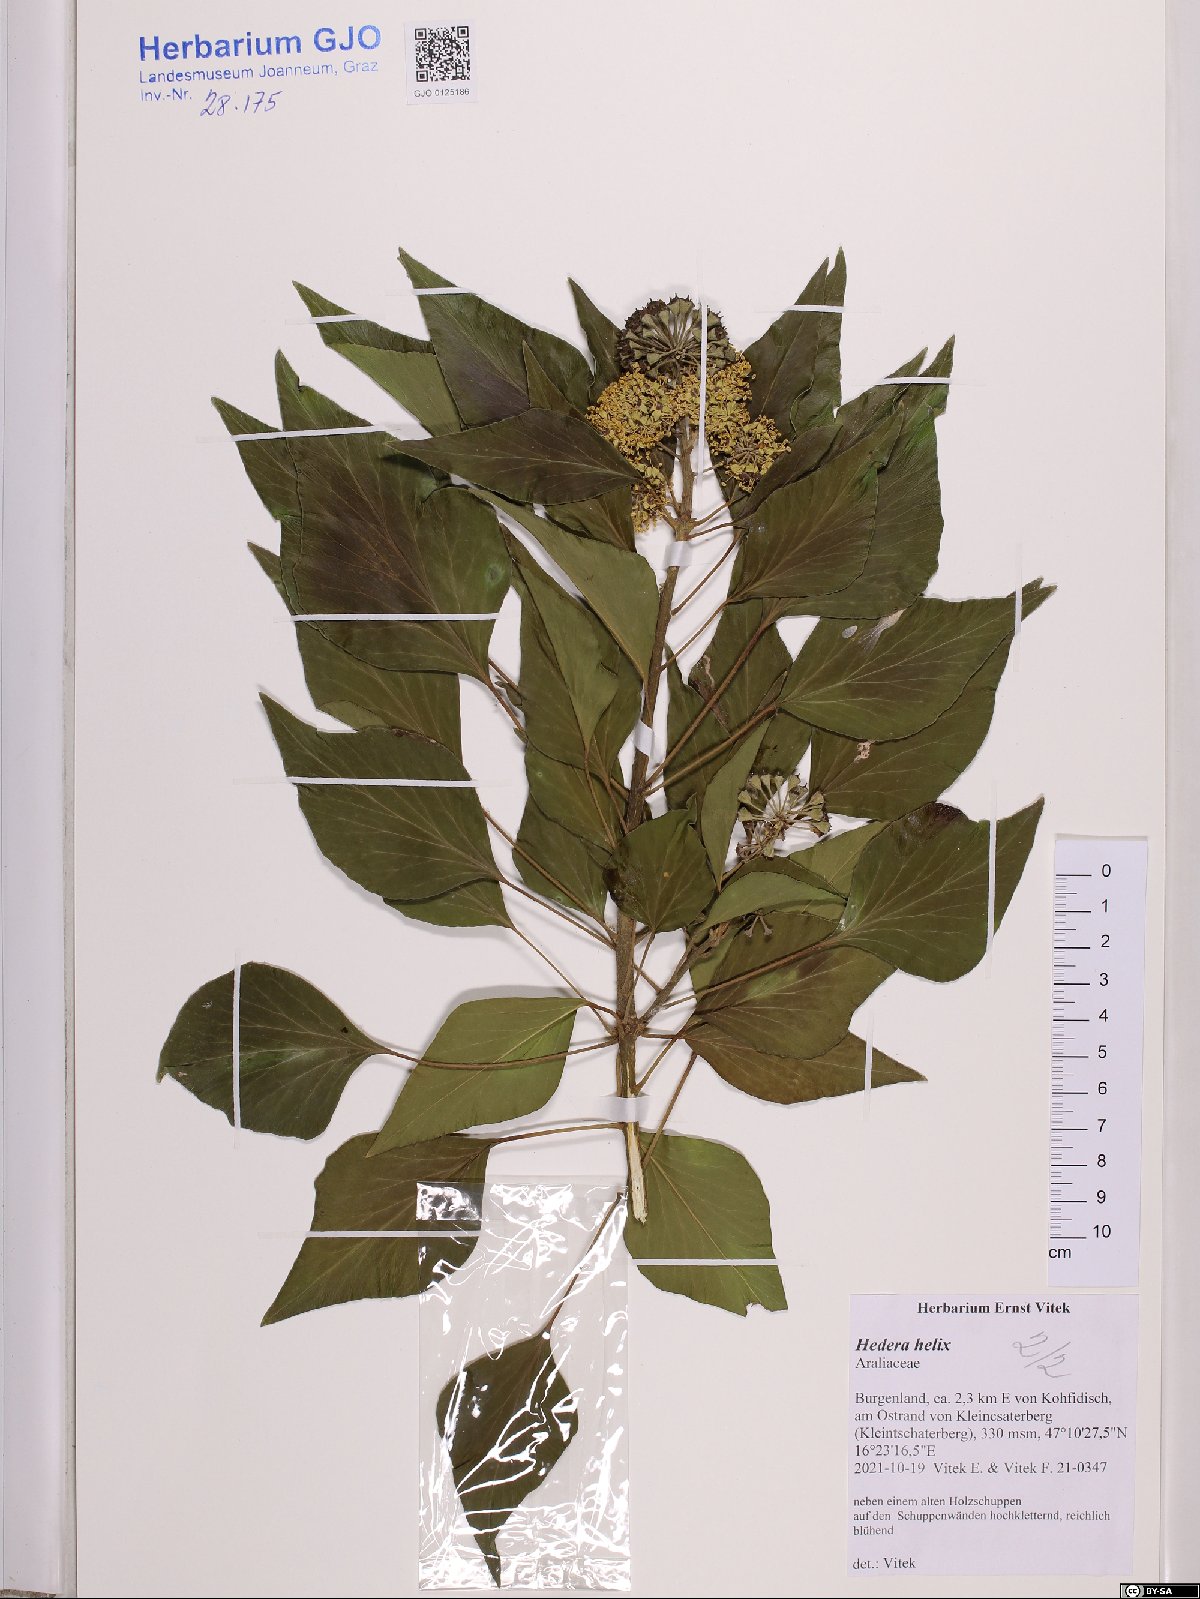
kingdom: Plantae
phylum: Tracheophyta
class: Magnoliopsida
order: Apiales
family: Araliaceae
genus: Hedera
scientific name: Hedera helix
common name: Ivy
